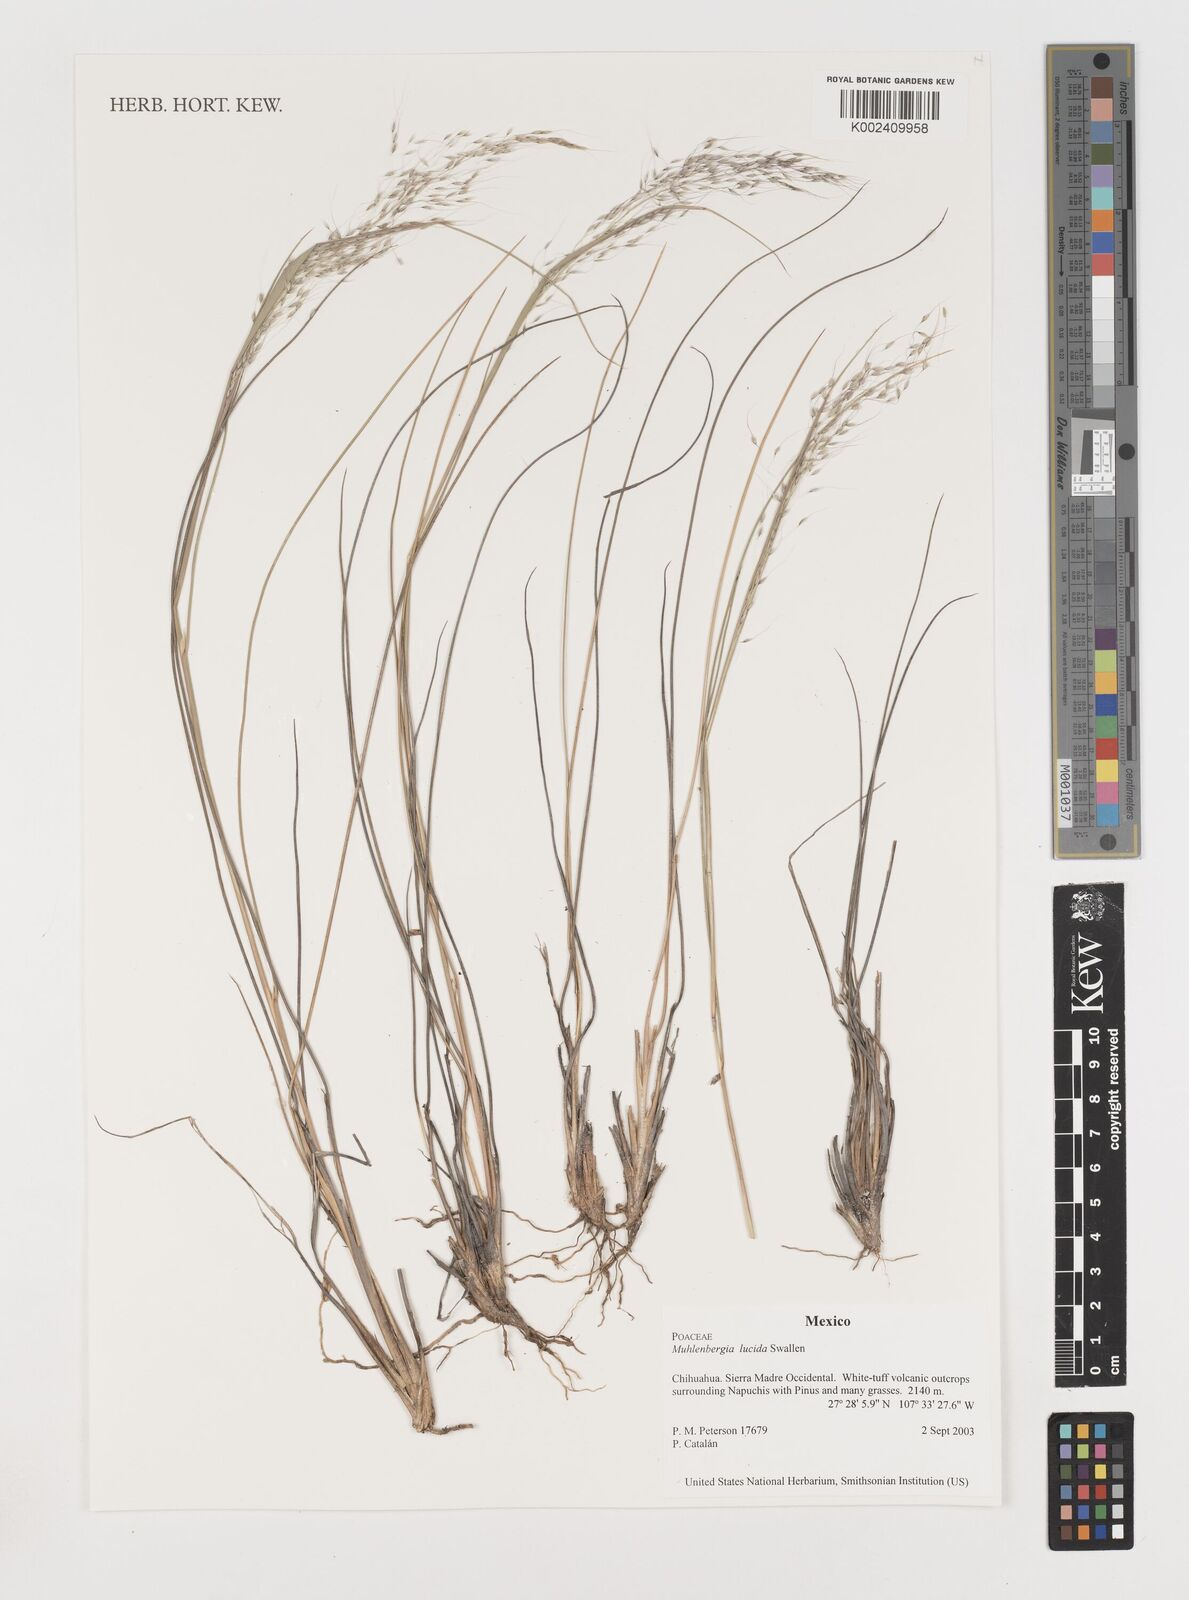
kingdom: Plantae
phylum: Tracheophyta
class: Liliopsida
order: Poales
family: Poaceae
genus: Muhlenbergia
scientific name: Muhlenbergia lucida
